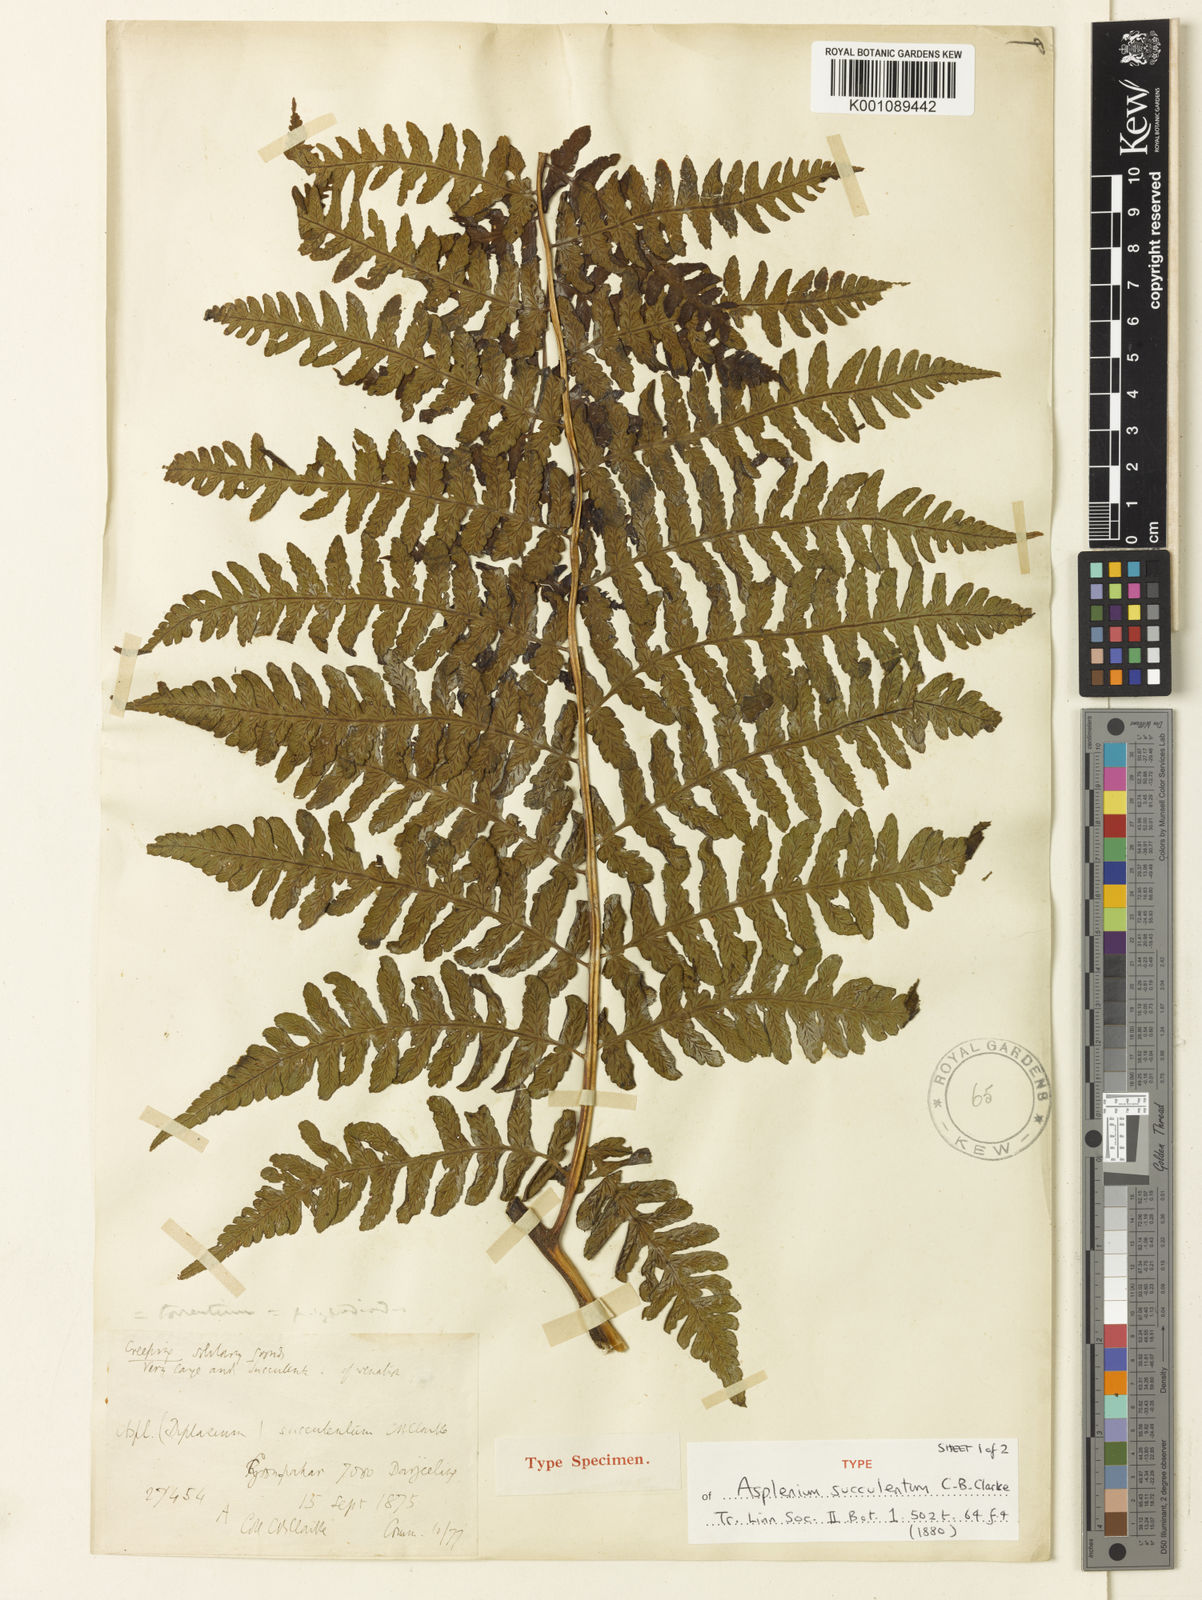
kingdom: Plantae
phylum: Tracheophyta
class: Polypodiopsida
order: Polypodiales
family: Athyriaceae
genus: Diplazium
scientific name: Diplazium succulentum
